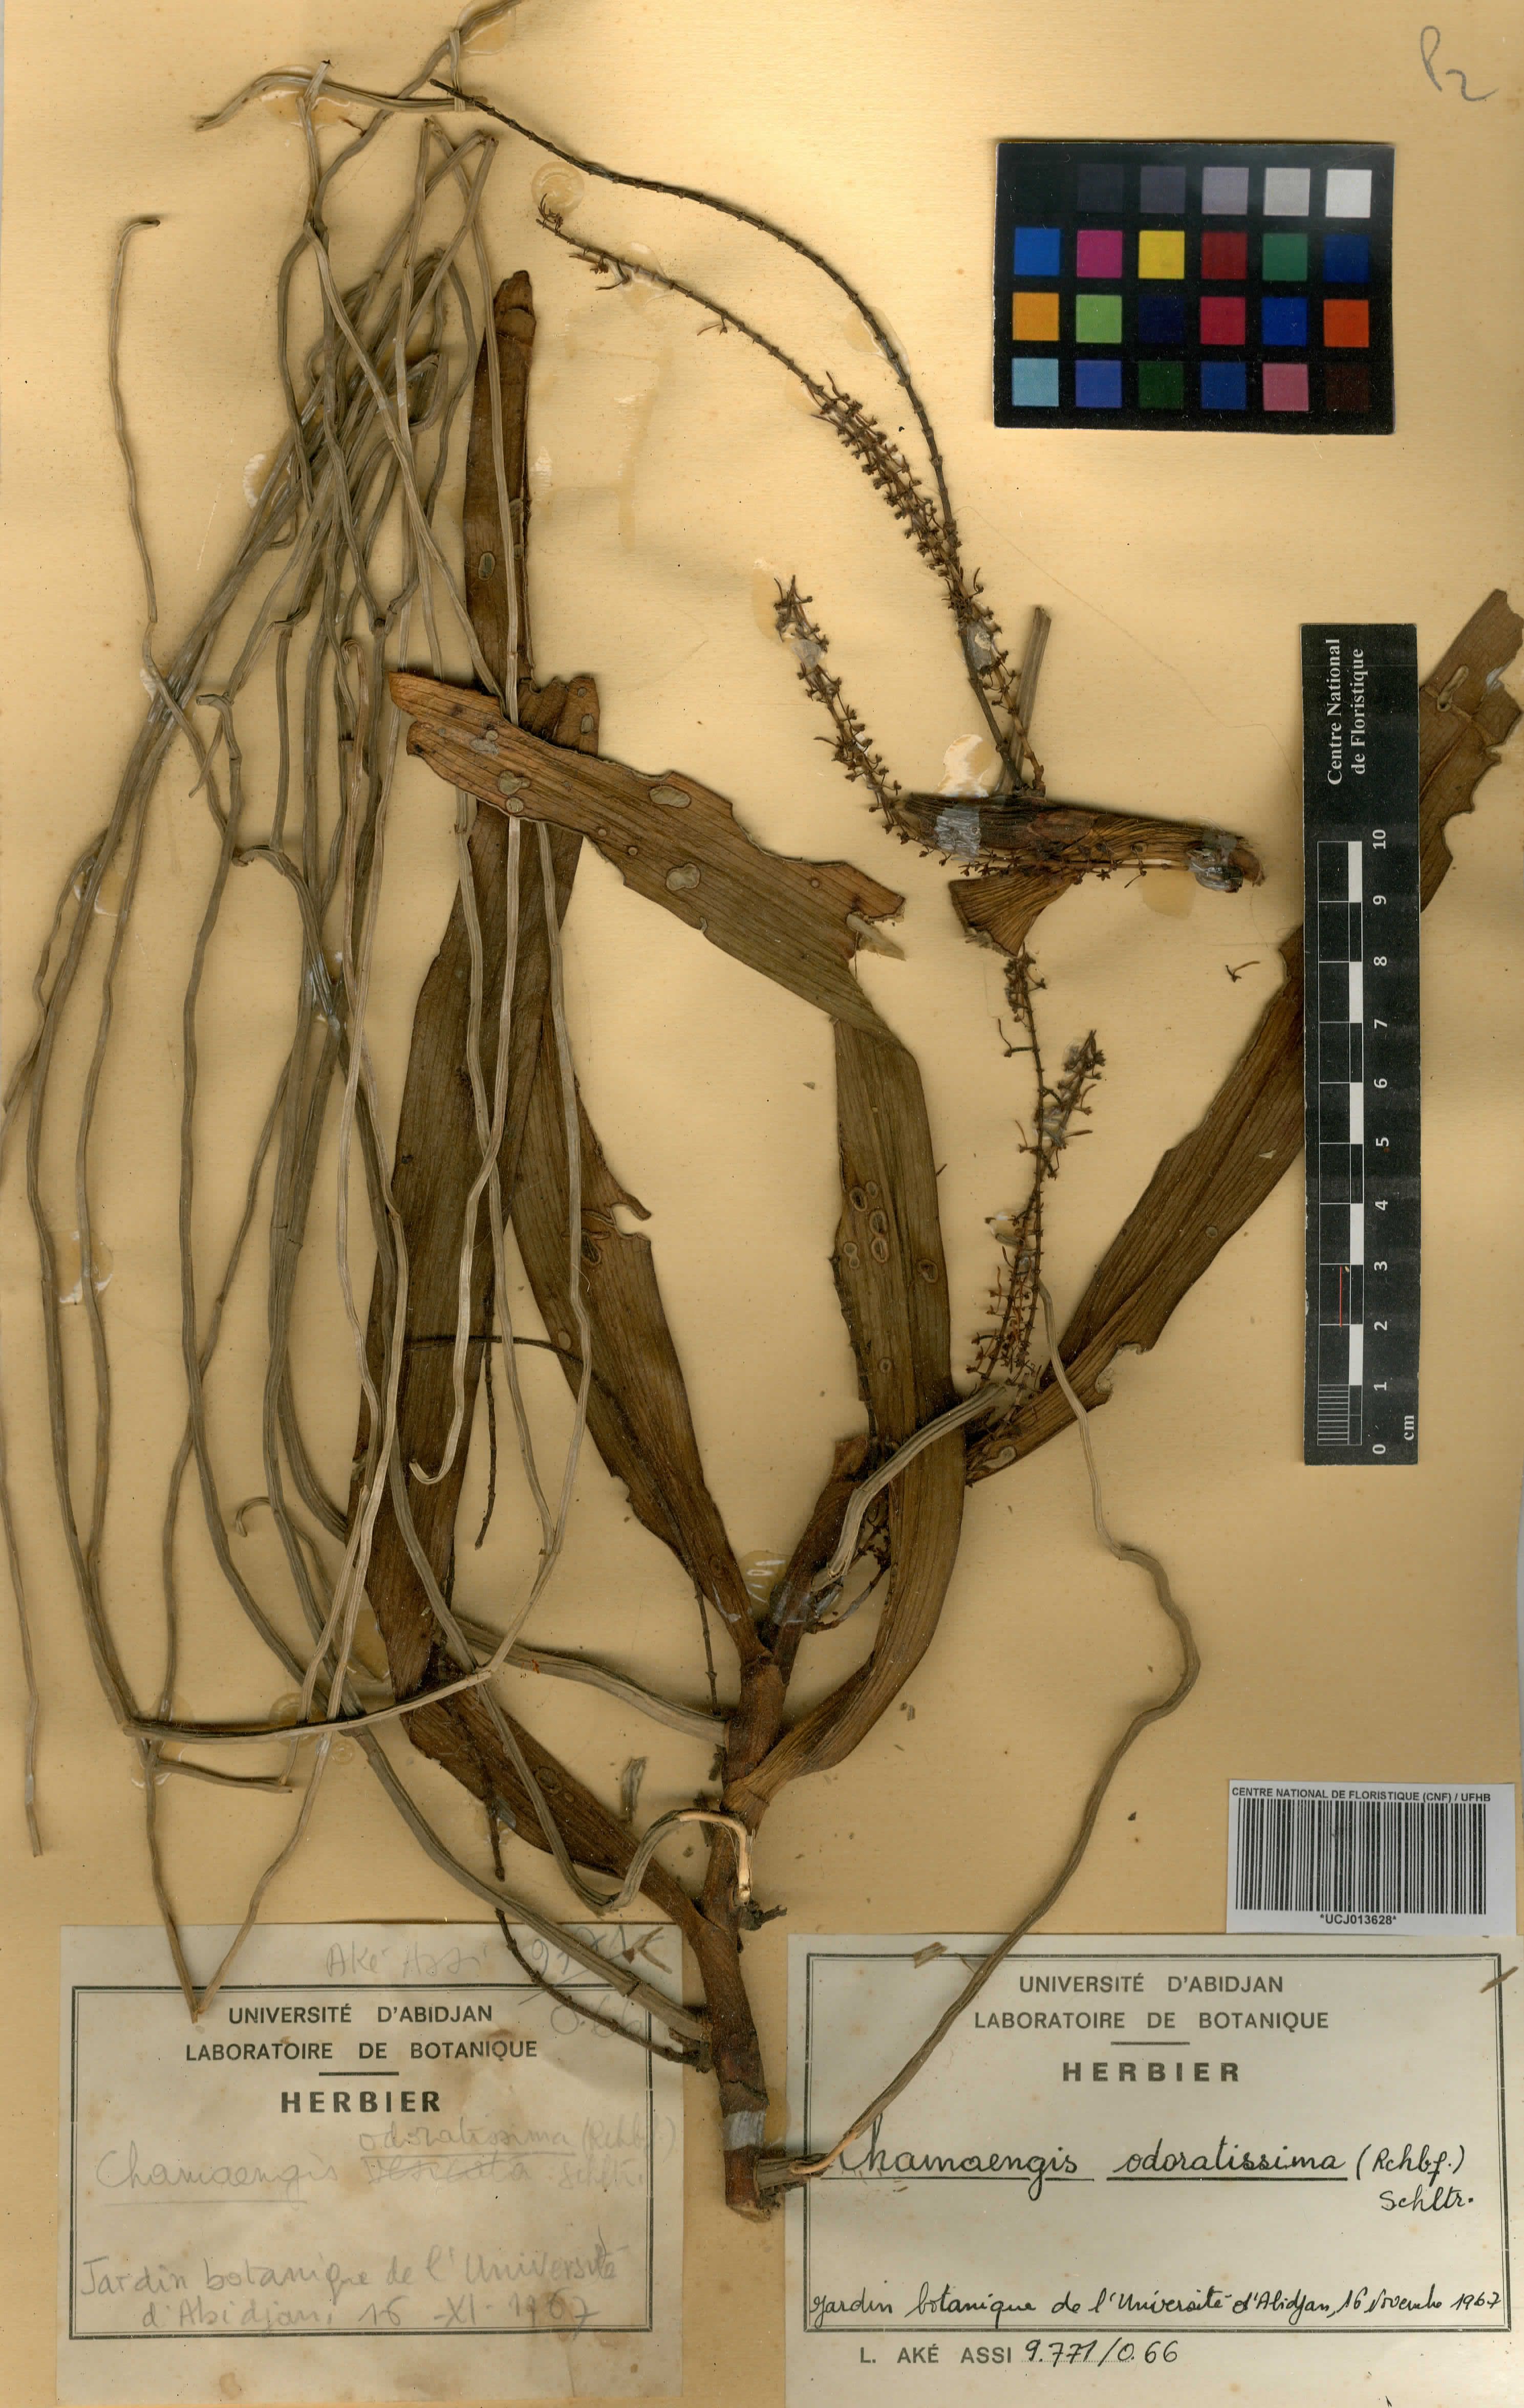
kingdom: Plantae
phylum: Tracheophyta
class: Liliopsida
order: Asparagales
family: Orchidaceae
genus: Diaphananthe
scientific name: Diaphananthe odoratissima
